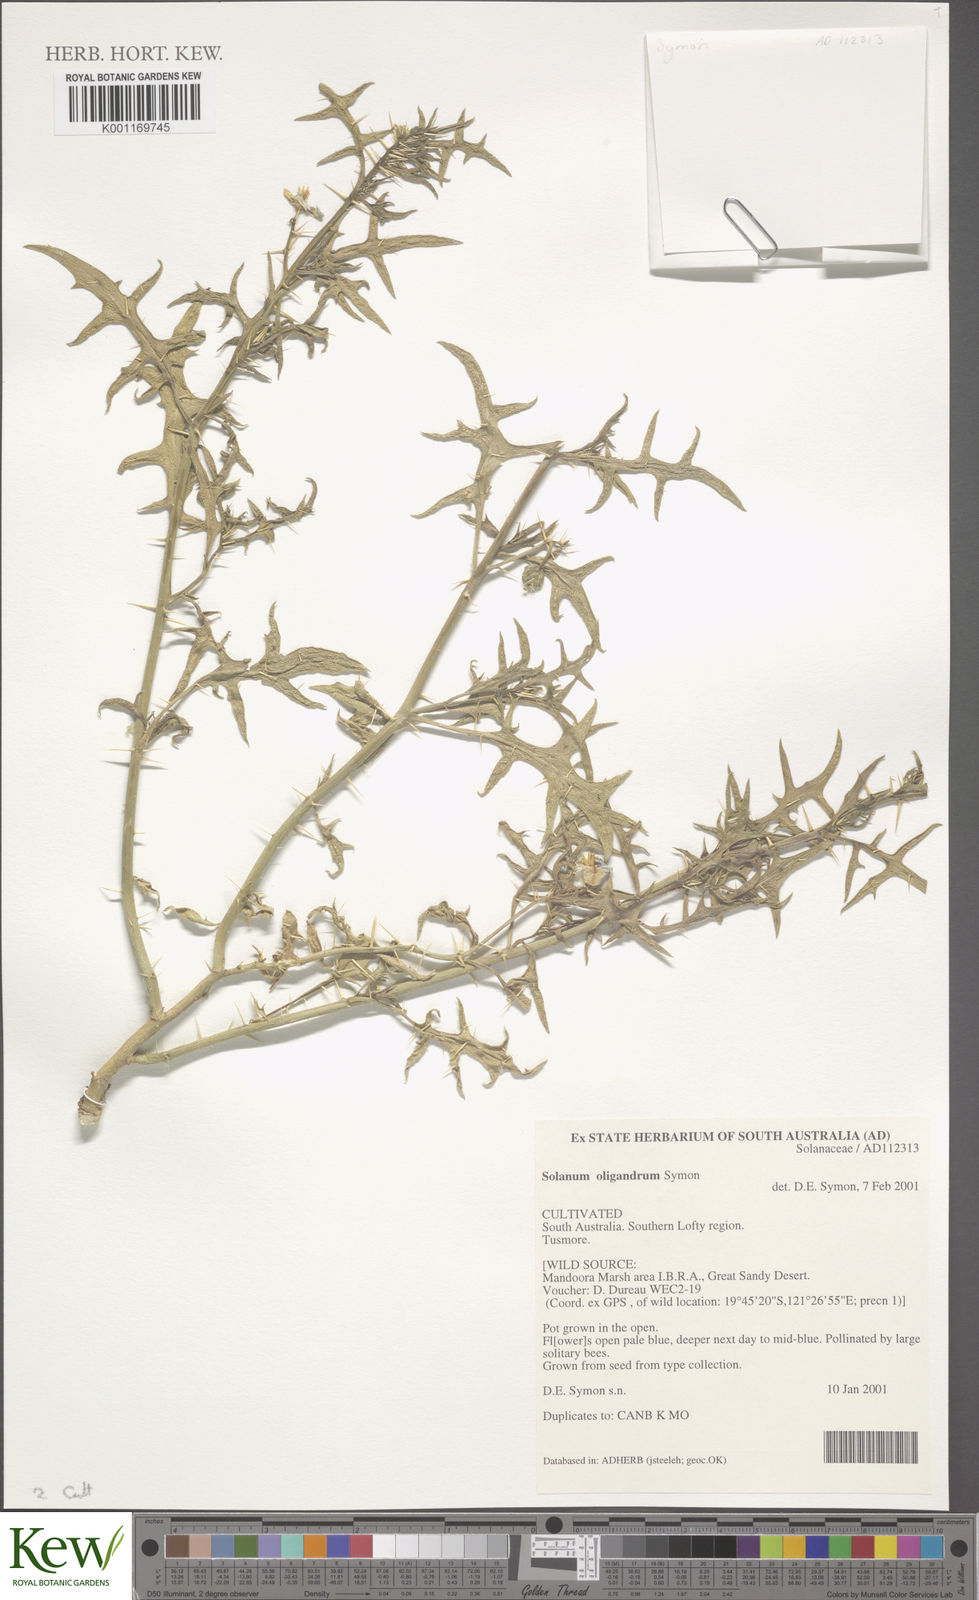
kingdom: Plantae
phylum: Tracheophyta
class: Magnoliopsida
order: Solanales
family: Solanaceae
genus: Solanum
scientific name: Solanum oligandrum
